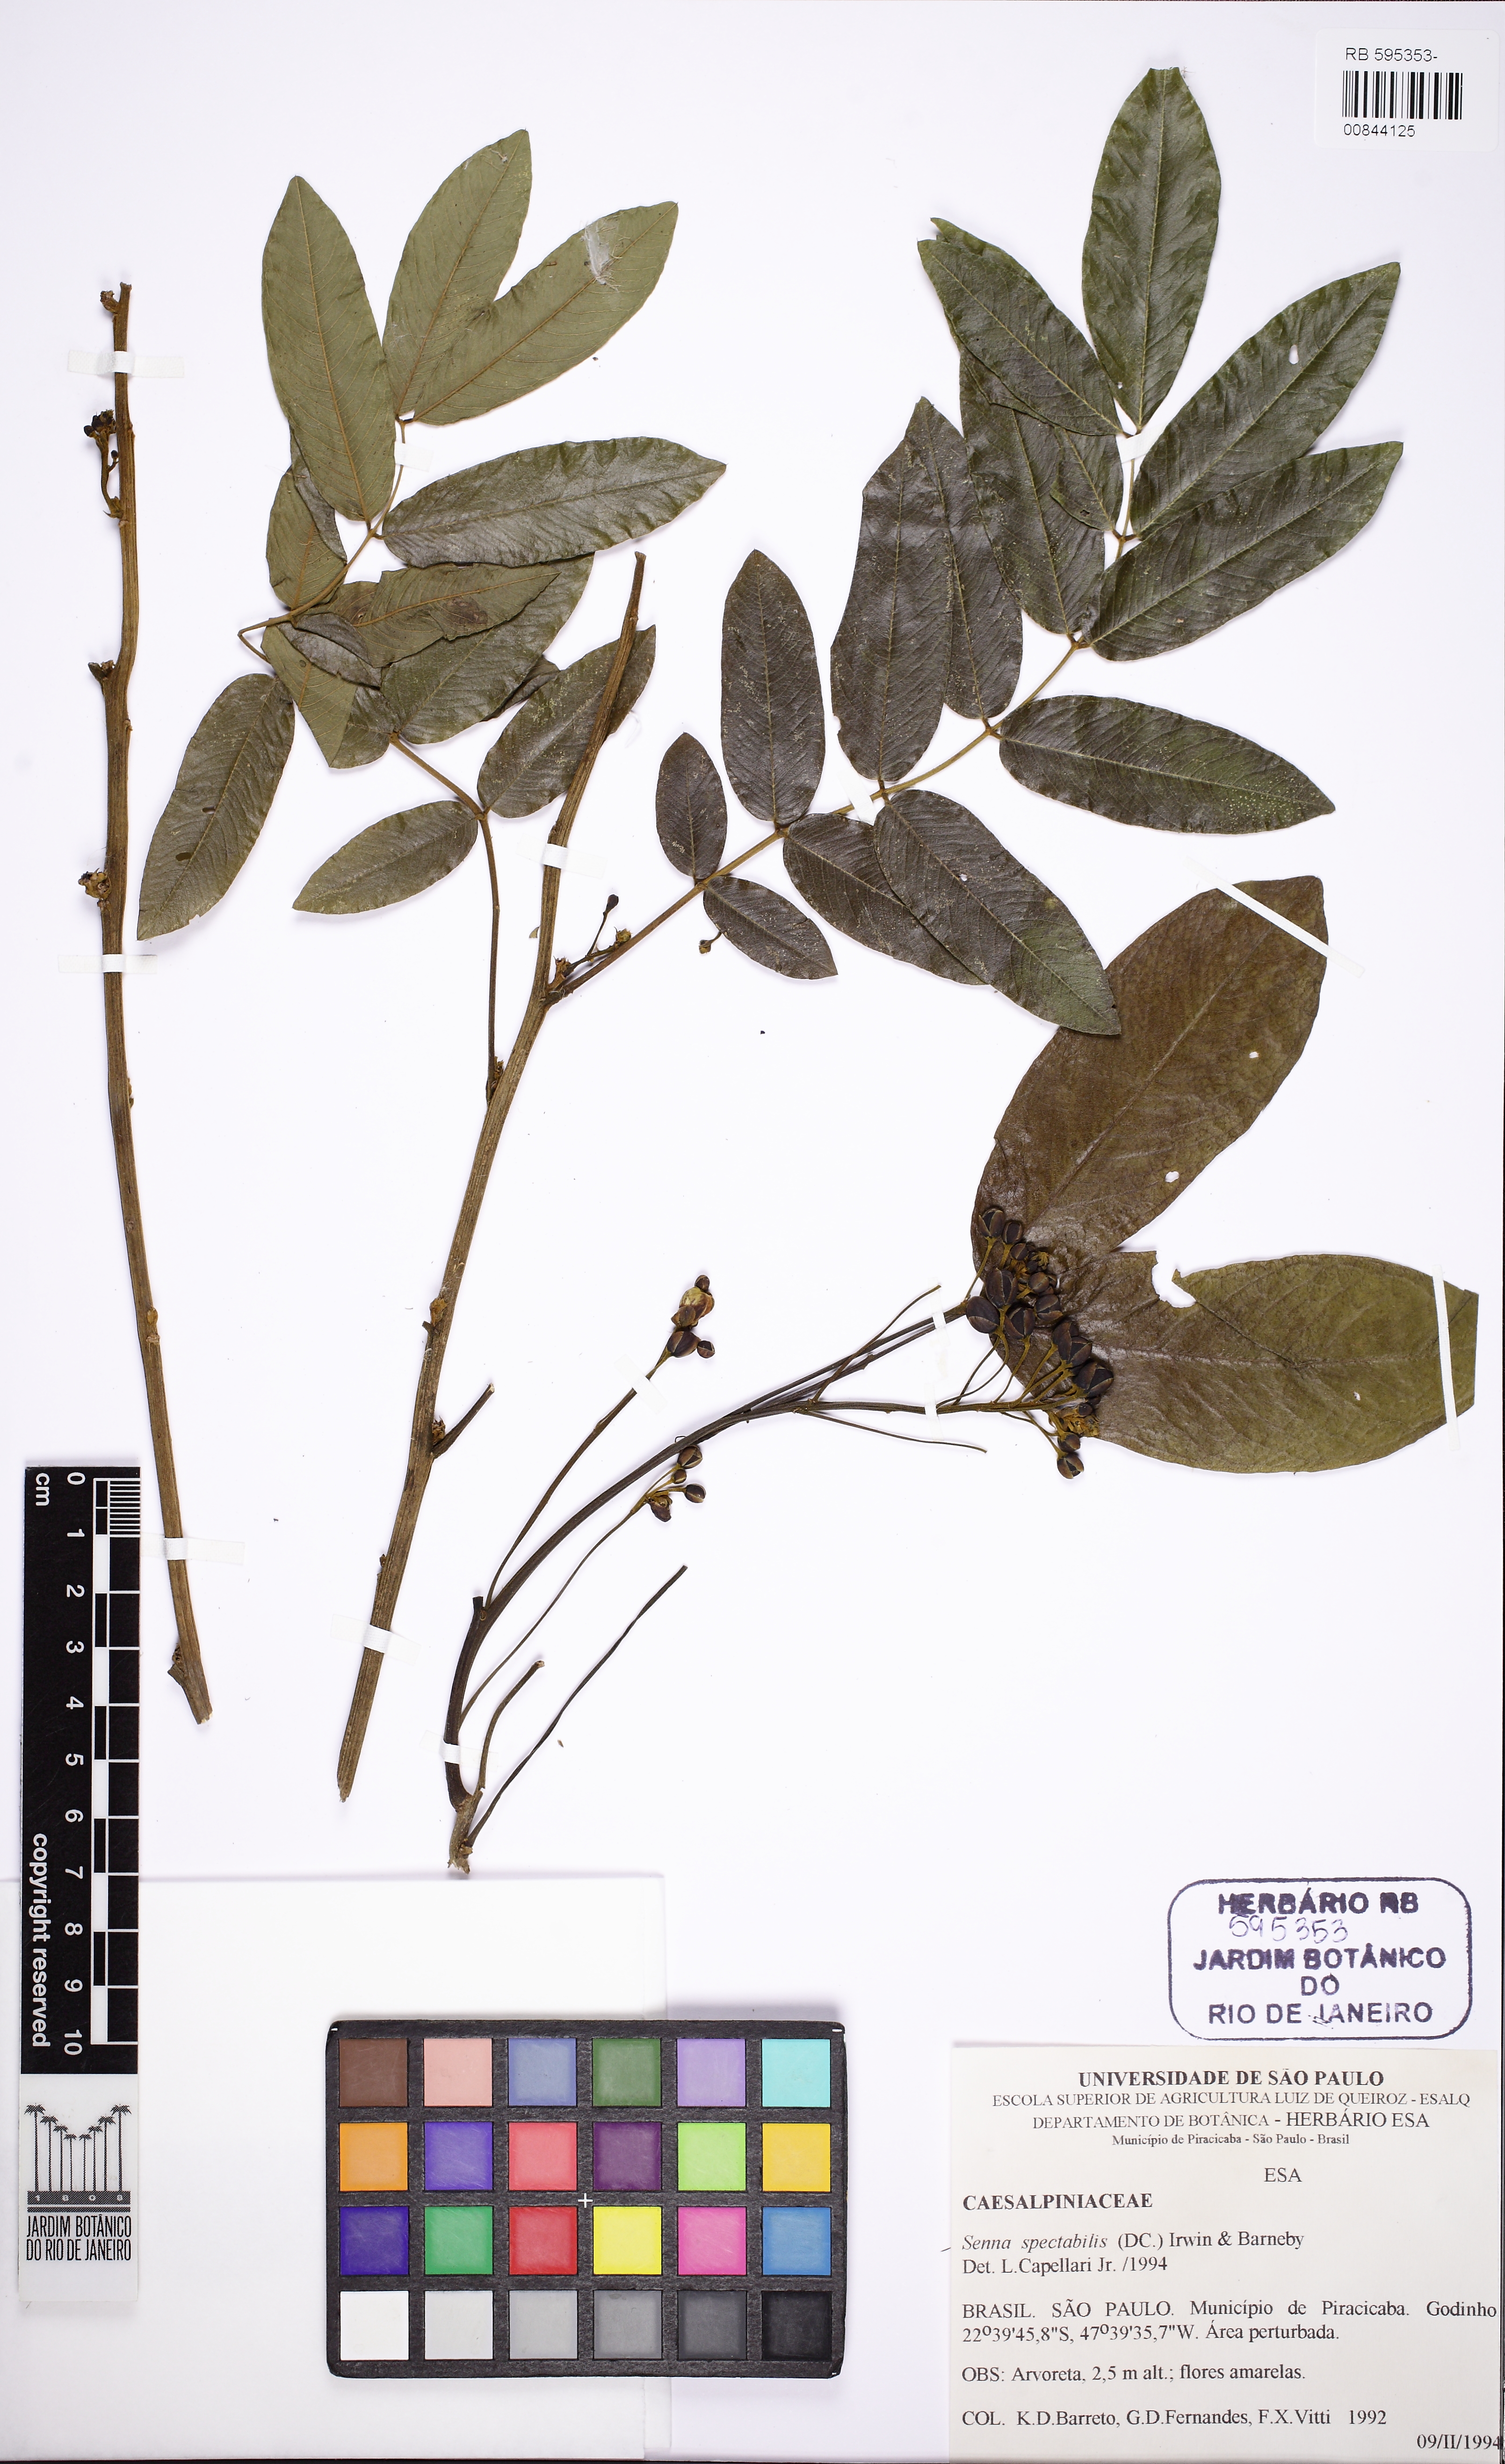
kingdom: Plantae
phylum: Tracheophyta
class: Magnoliopsida
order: Fabales
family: Fabaceae
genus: Senna
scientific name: Senna spectabilis
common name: Casia amarilla
